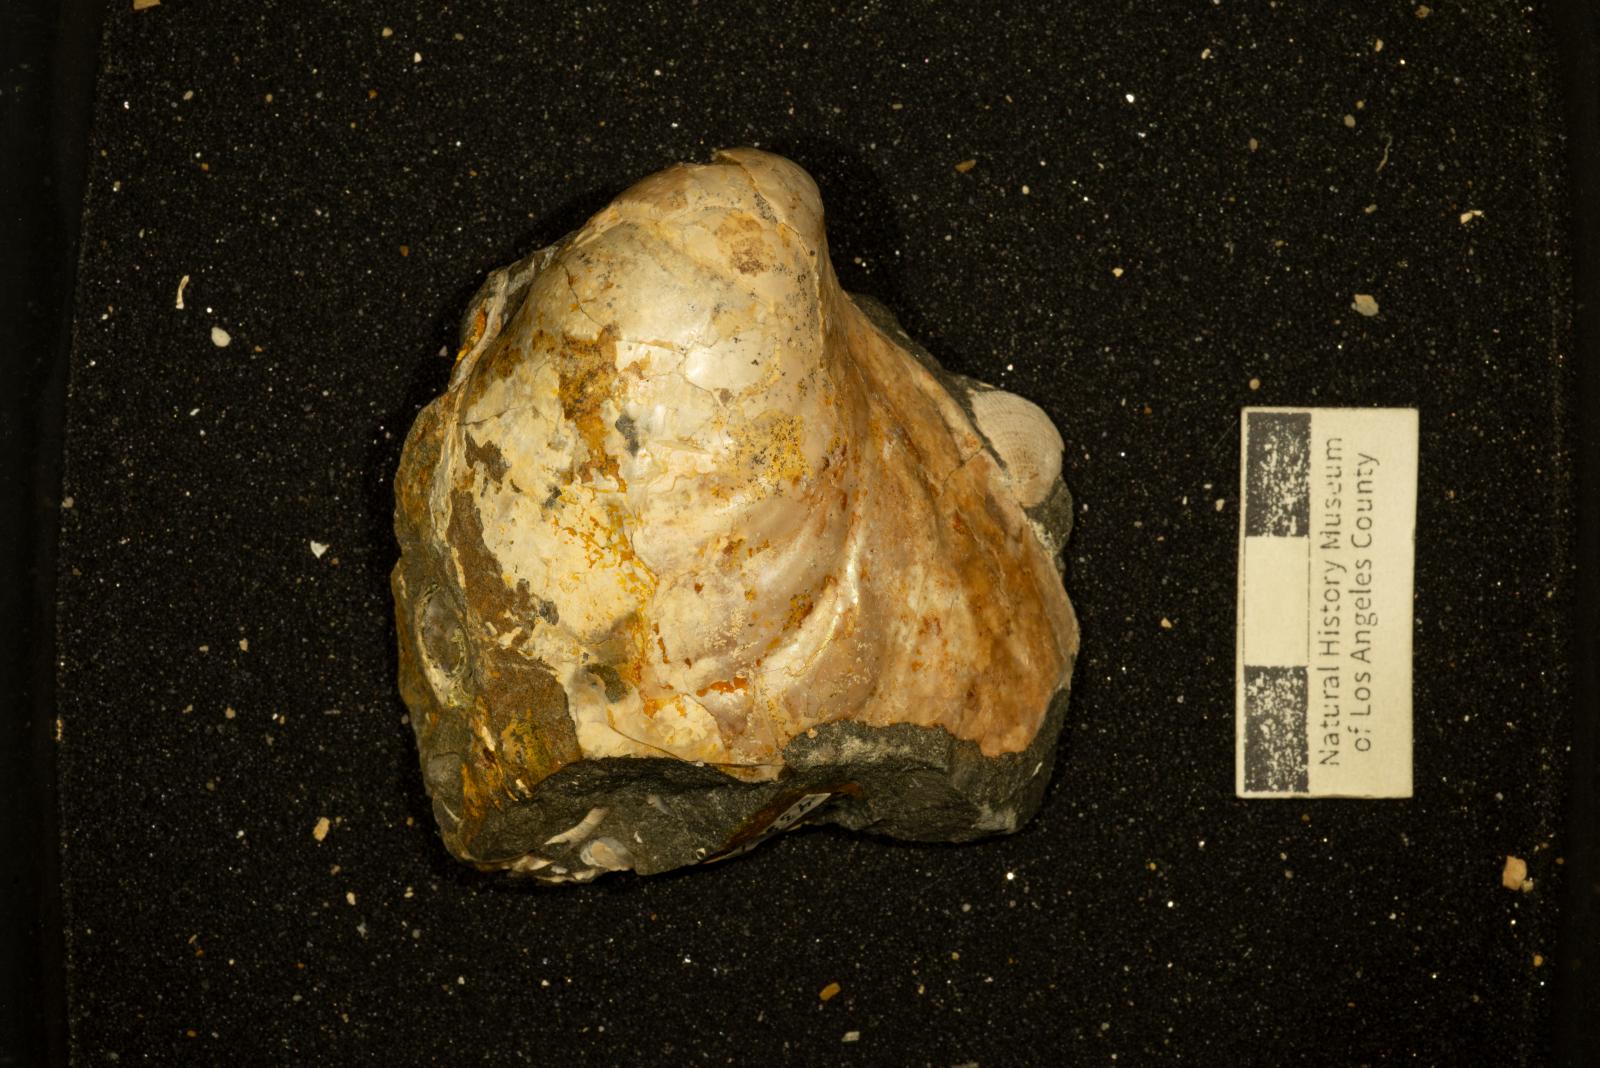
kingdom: Animalia
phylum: Mollusca
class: Bivalvia
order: Myalinida
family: Inoceramidae
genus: Cataceramus
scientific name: Cataceramus
